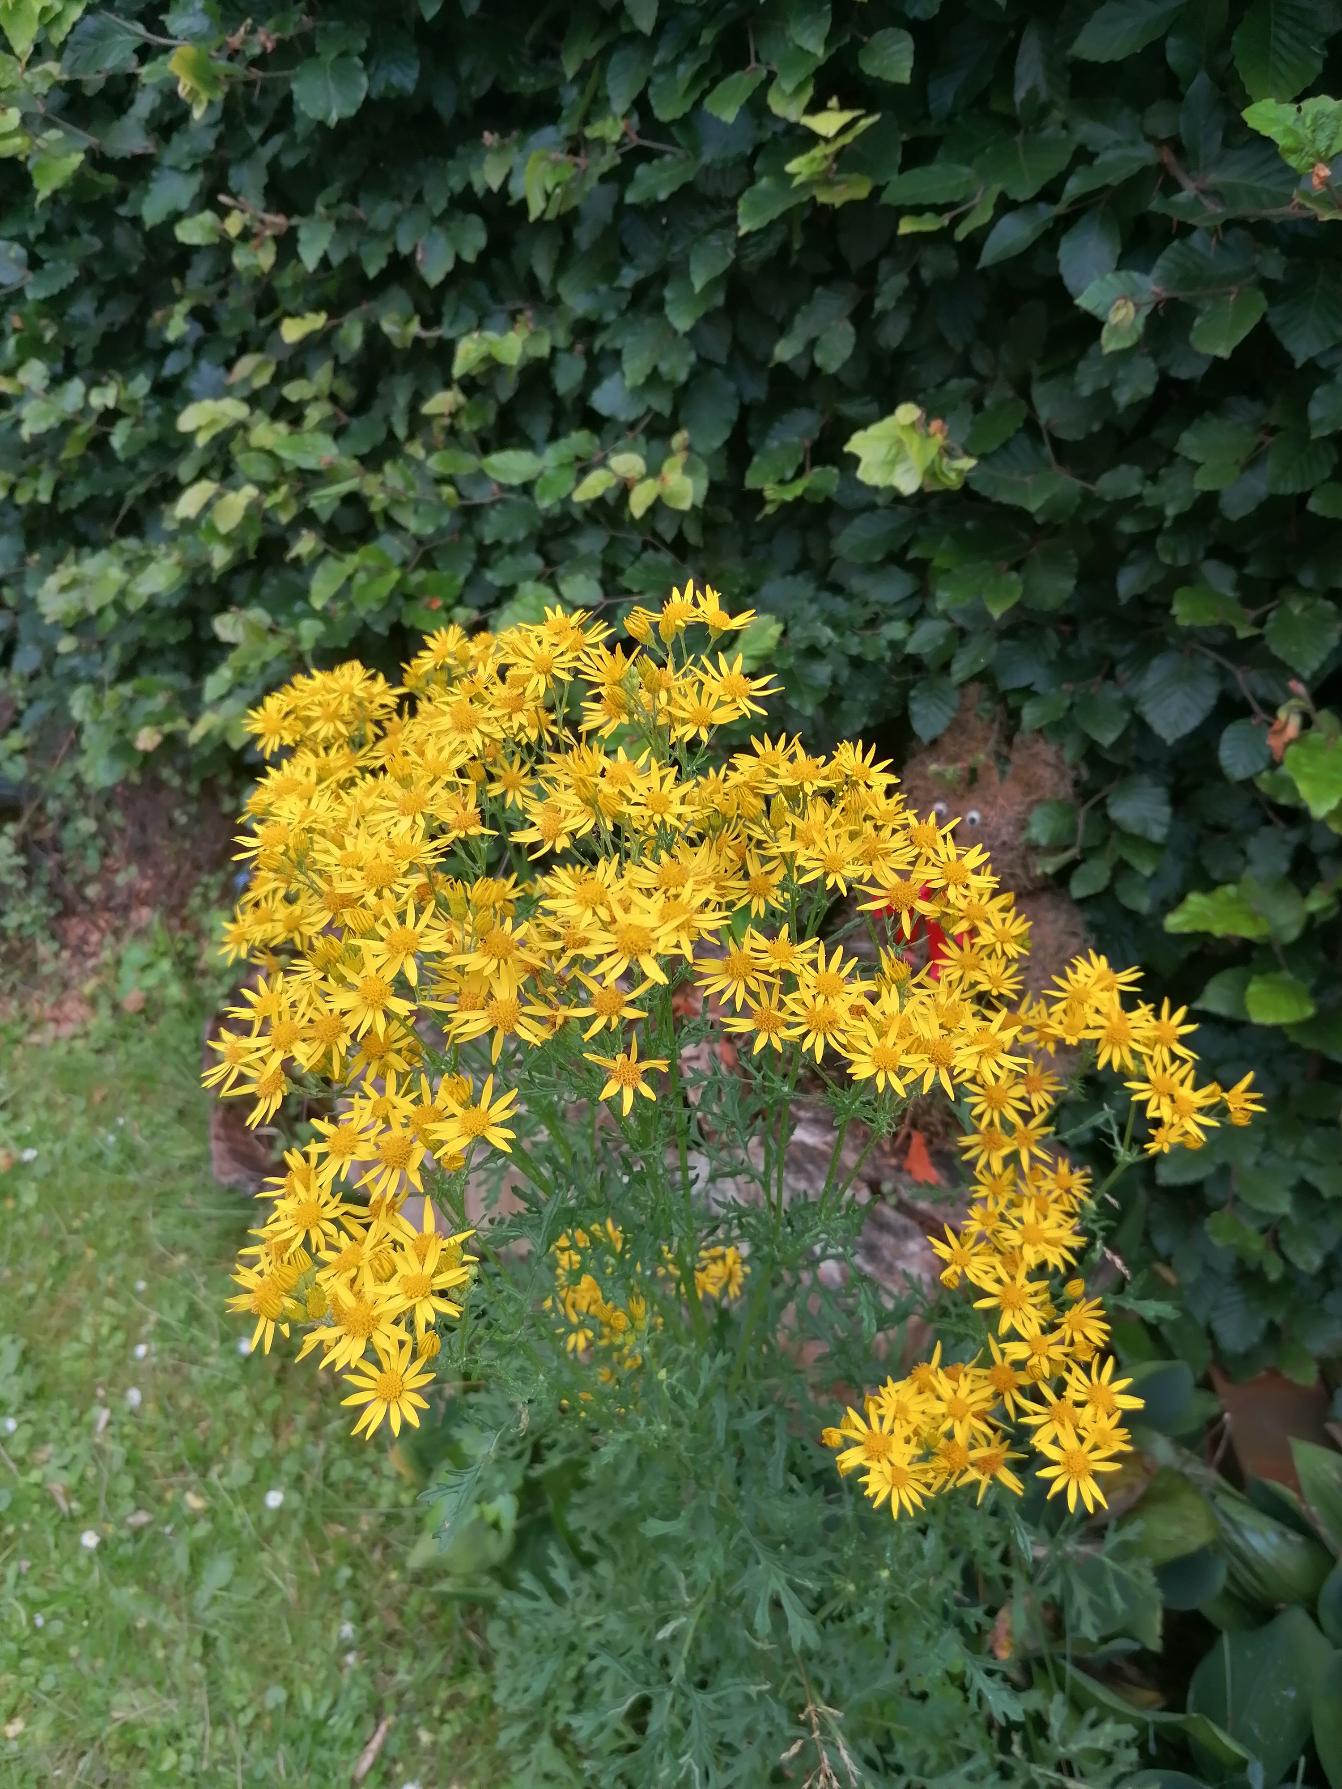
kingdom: Plantae
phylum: Tracheophyta
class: Magnoliopsida
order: Asterales
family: Asteraceae
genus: Jacobaea
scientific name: Jacobaea vulgaris
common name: Eng-brandbæger
